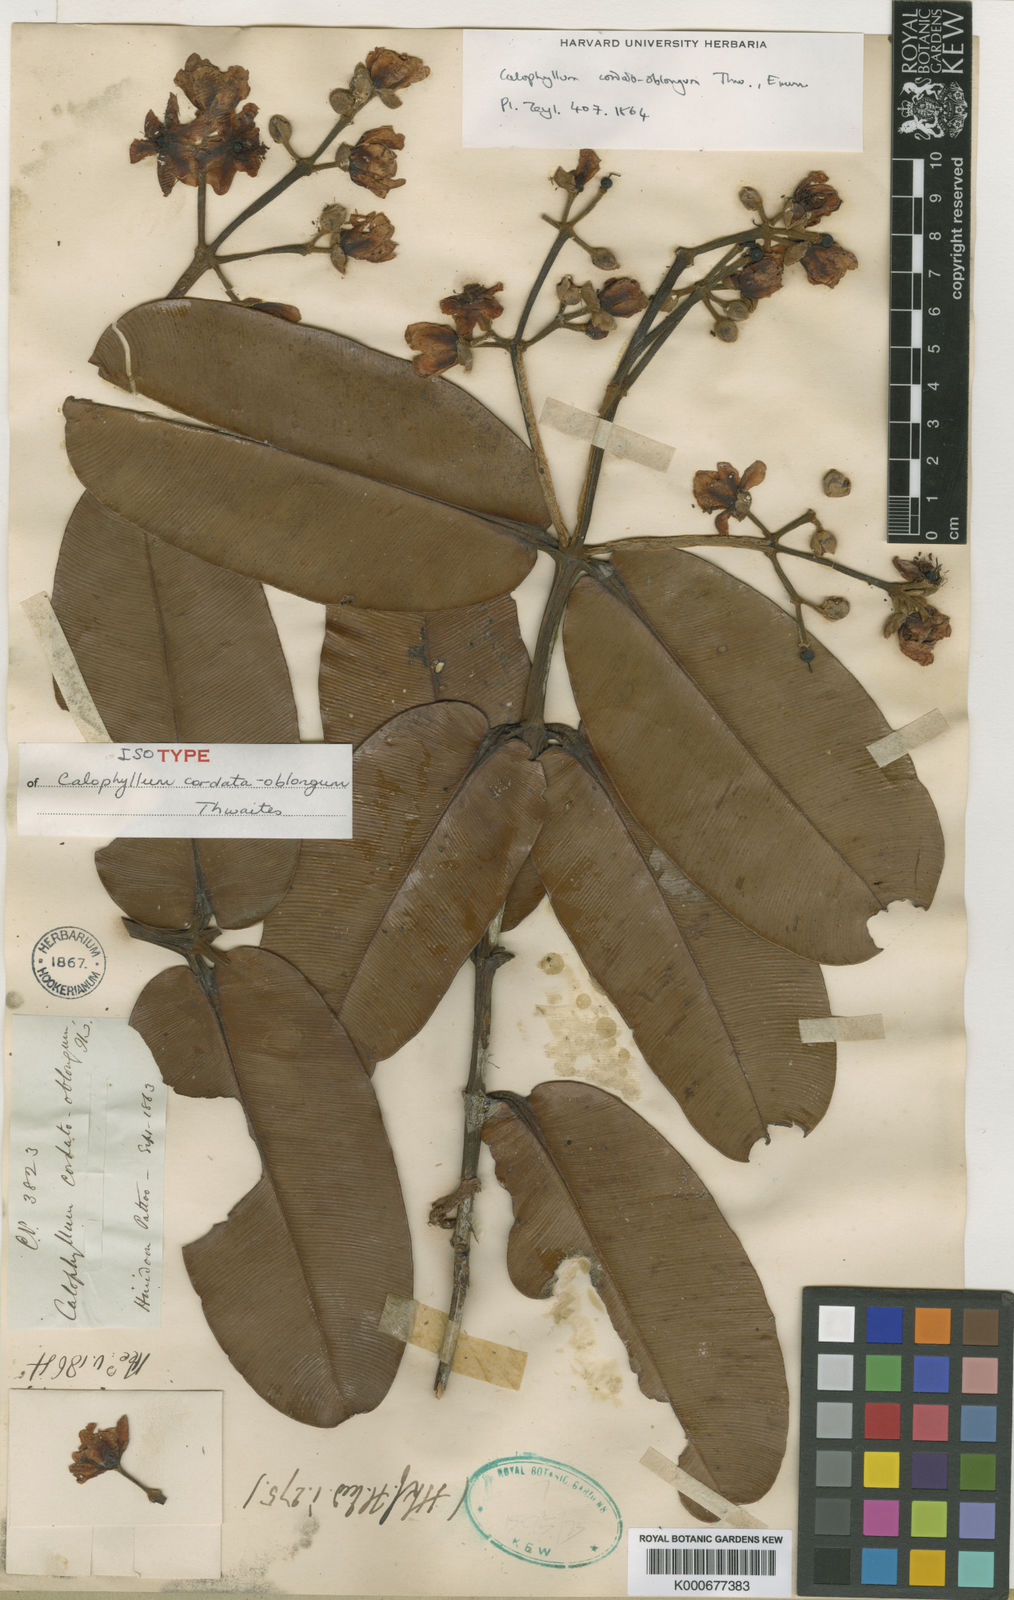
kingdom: Plantae
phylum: Tracheophyta
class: Magnoliopsida
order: Malpighiales
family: Calophyllaceae
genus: Calophyllum
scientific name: Calophyllum cordato-oblongum
